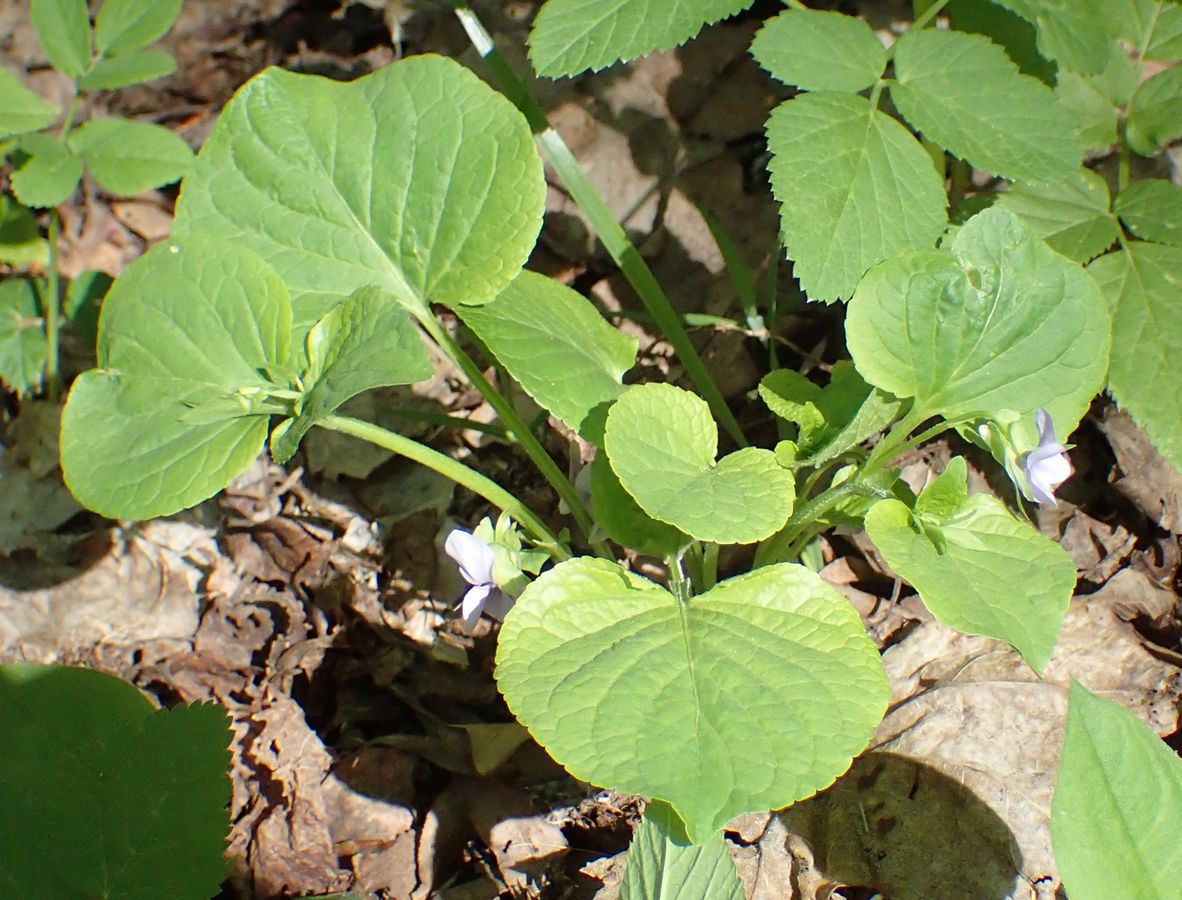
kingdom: Plantae
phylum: Tracheophyta
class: Magnoliopsida
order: Malpighiales
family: Violaceae
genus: Viola
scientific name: Viola rupestris
